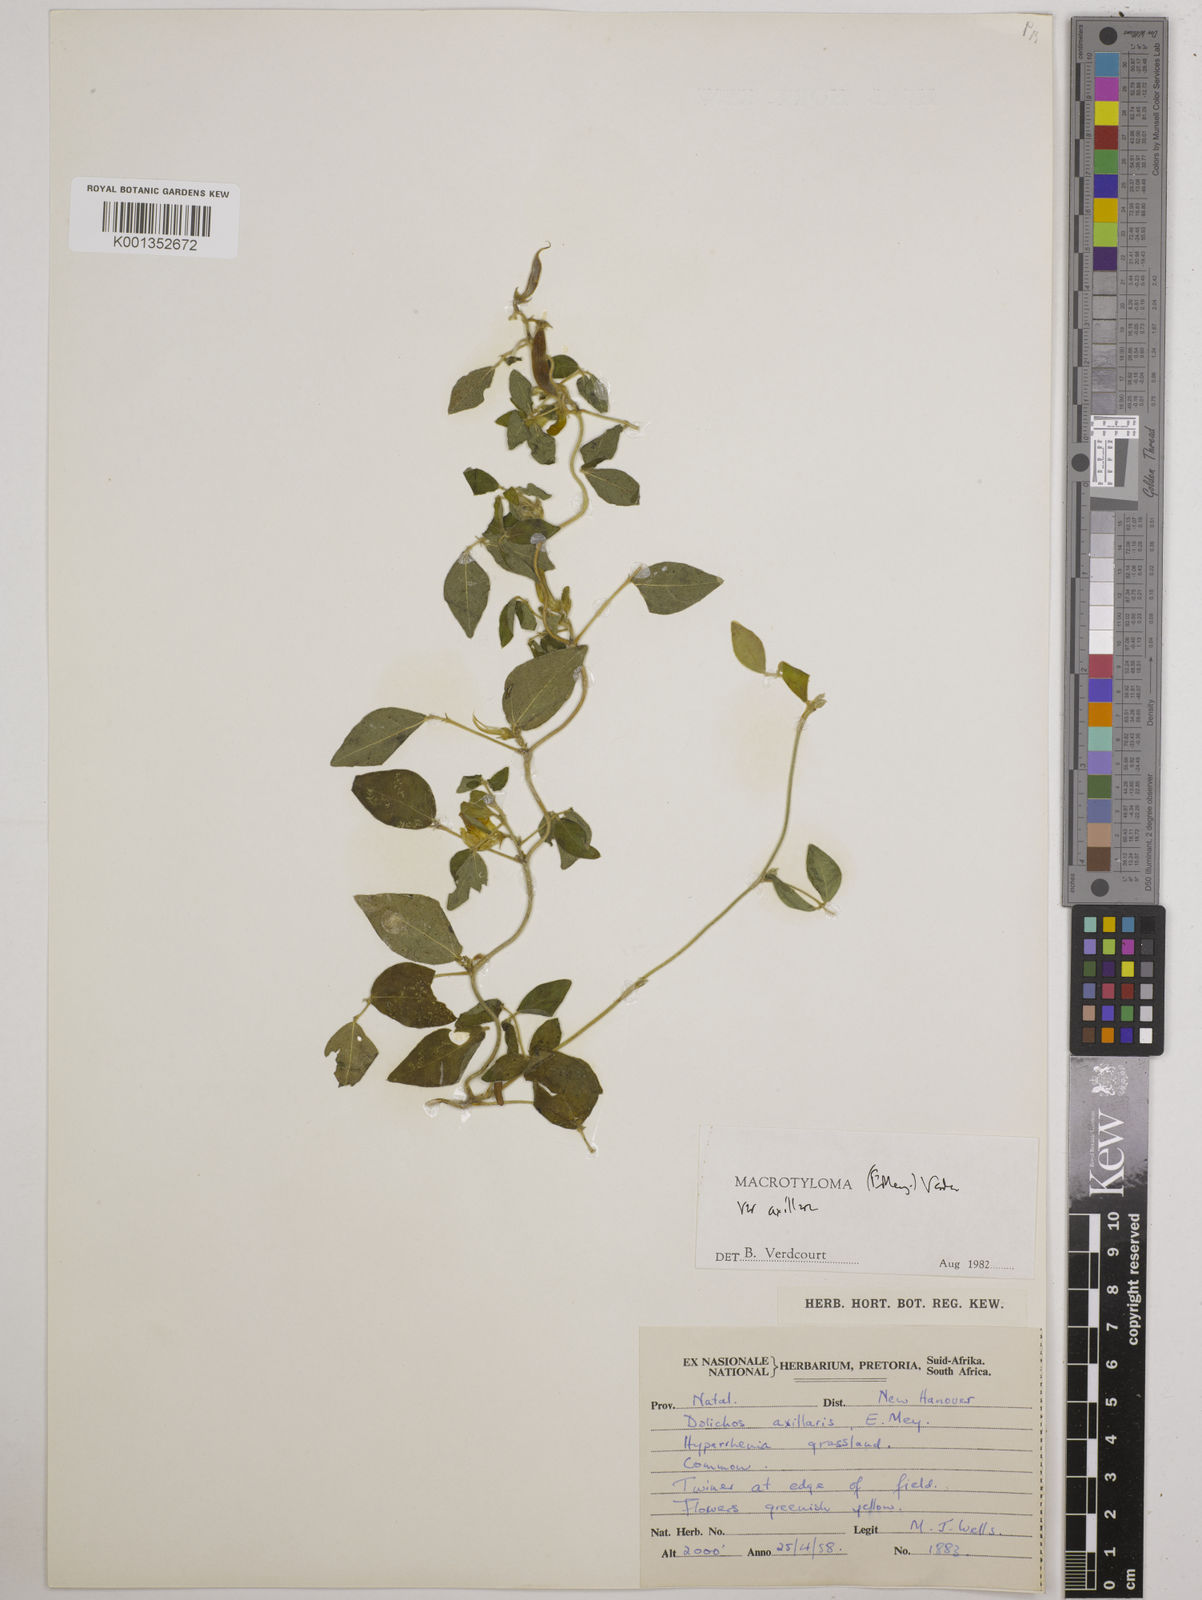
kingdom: Plantae
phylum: Tracheophyta
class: Magnoliopsida
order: Fabales
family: Fabaceae
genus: Macrotyloma
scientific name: Macrotyloma axillare
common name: Perennial horsegram
